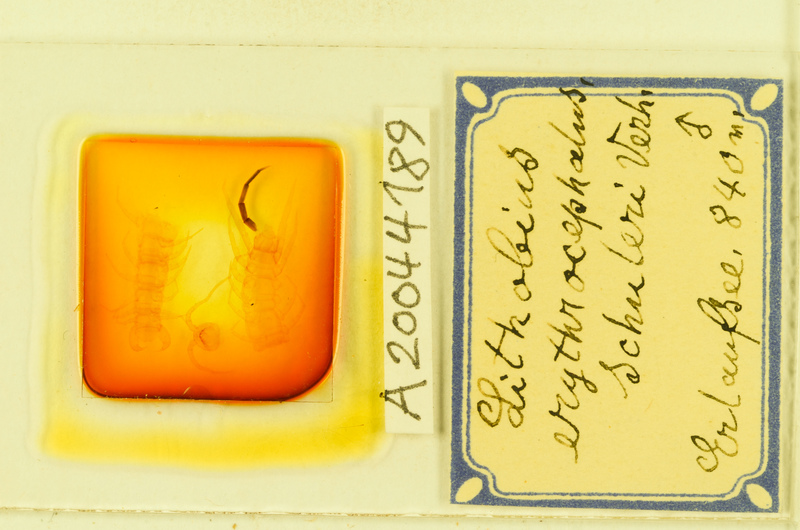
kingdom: Animalia
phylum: Arthropoda
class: Chilopoda
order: Lithobiomorpha
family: Lithobiidae
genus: Lithobius
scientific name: Lithobius erythrocephalus
